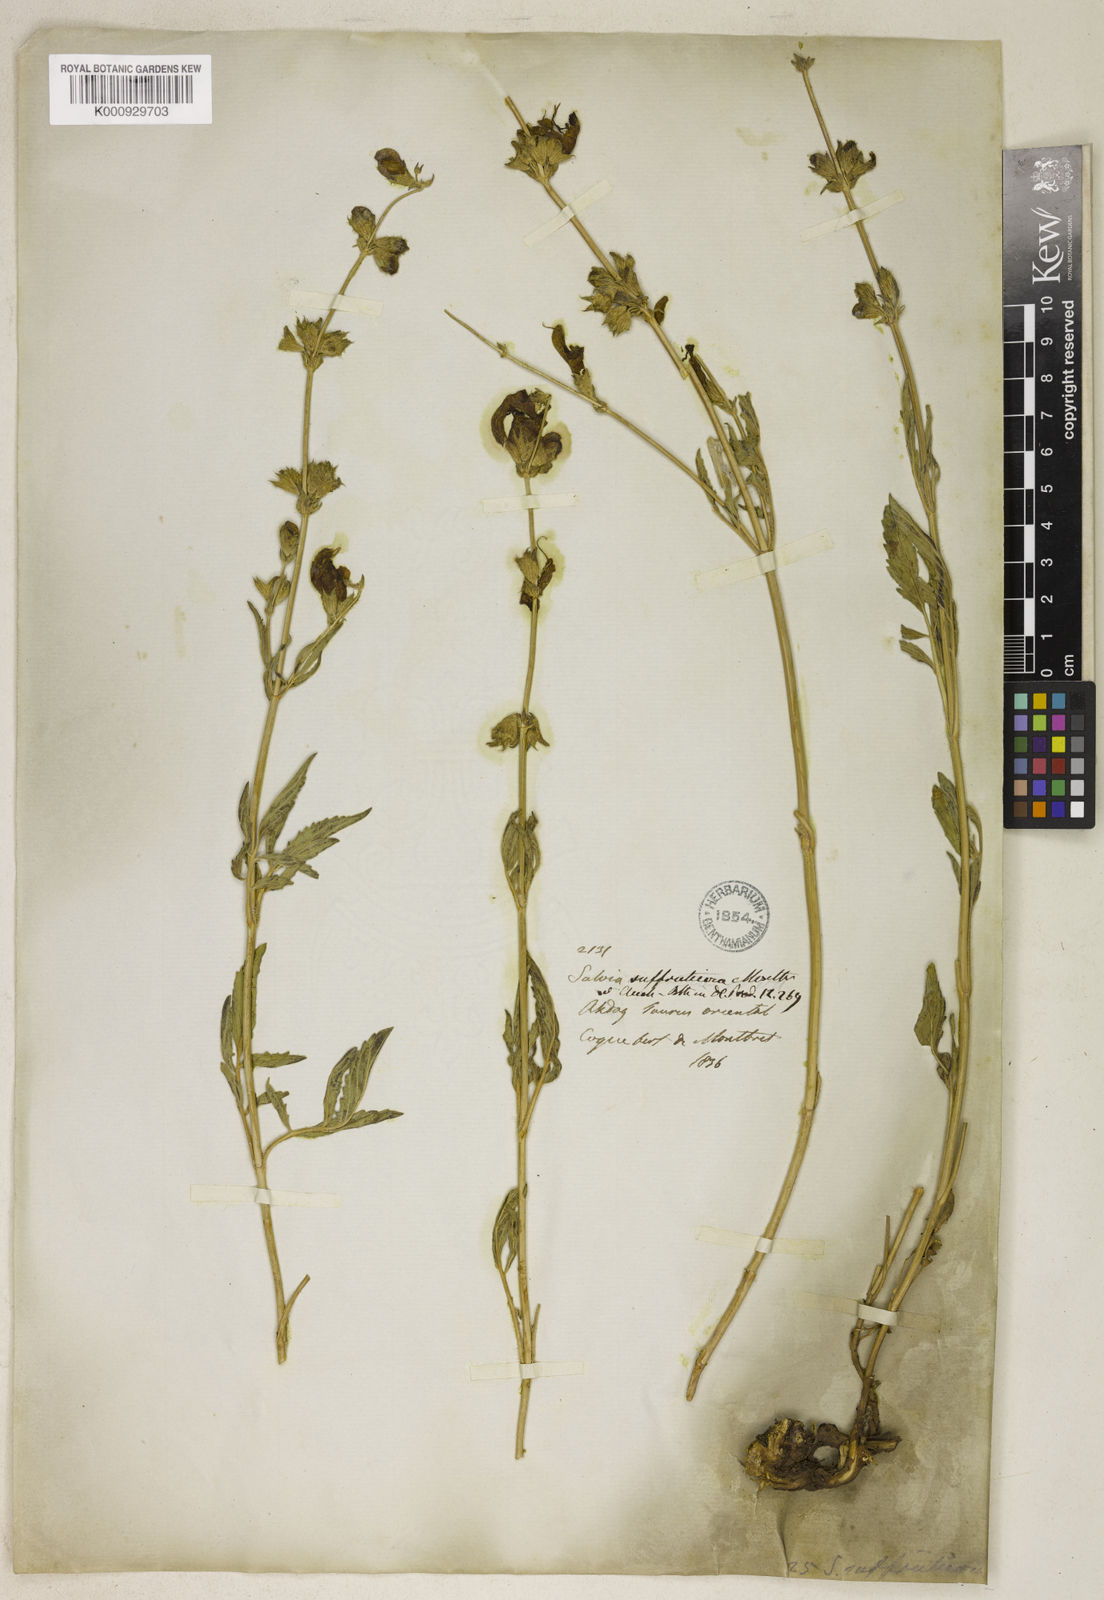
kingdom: Plantae
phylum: Tracheophyta
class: Magnoliopsida
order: Lamiales
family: Lamiaceae
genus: Salvia
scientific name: Salvia suffruticosa
